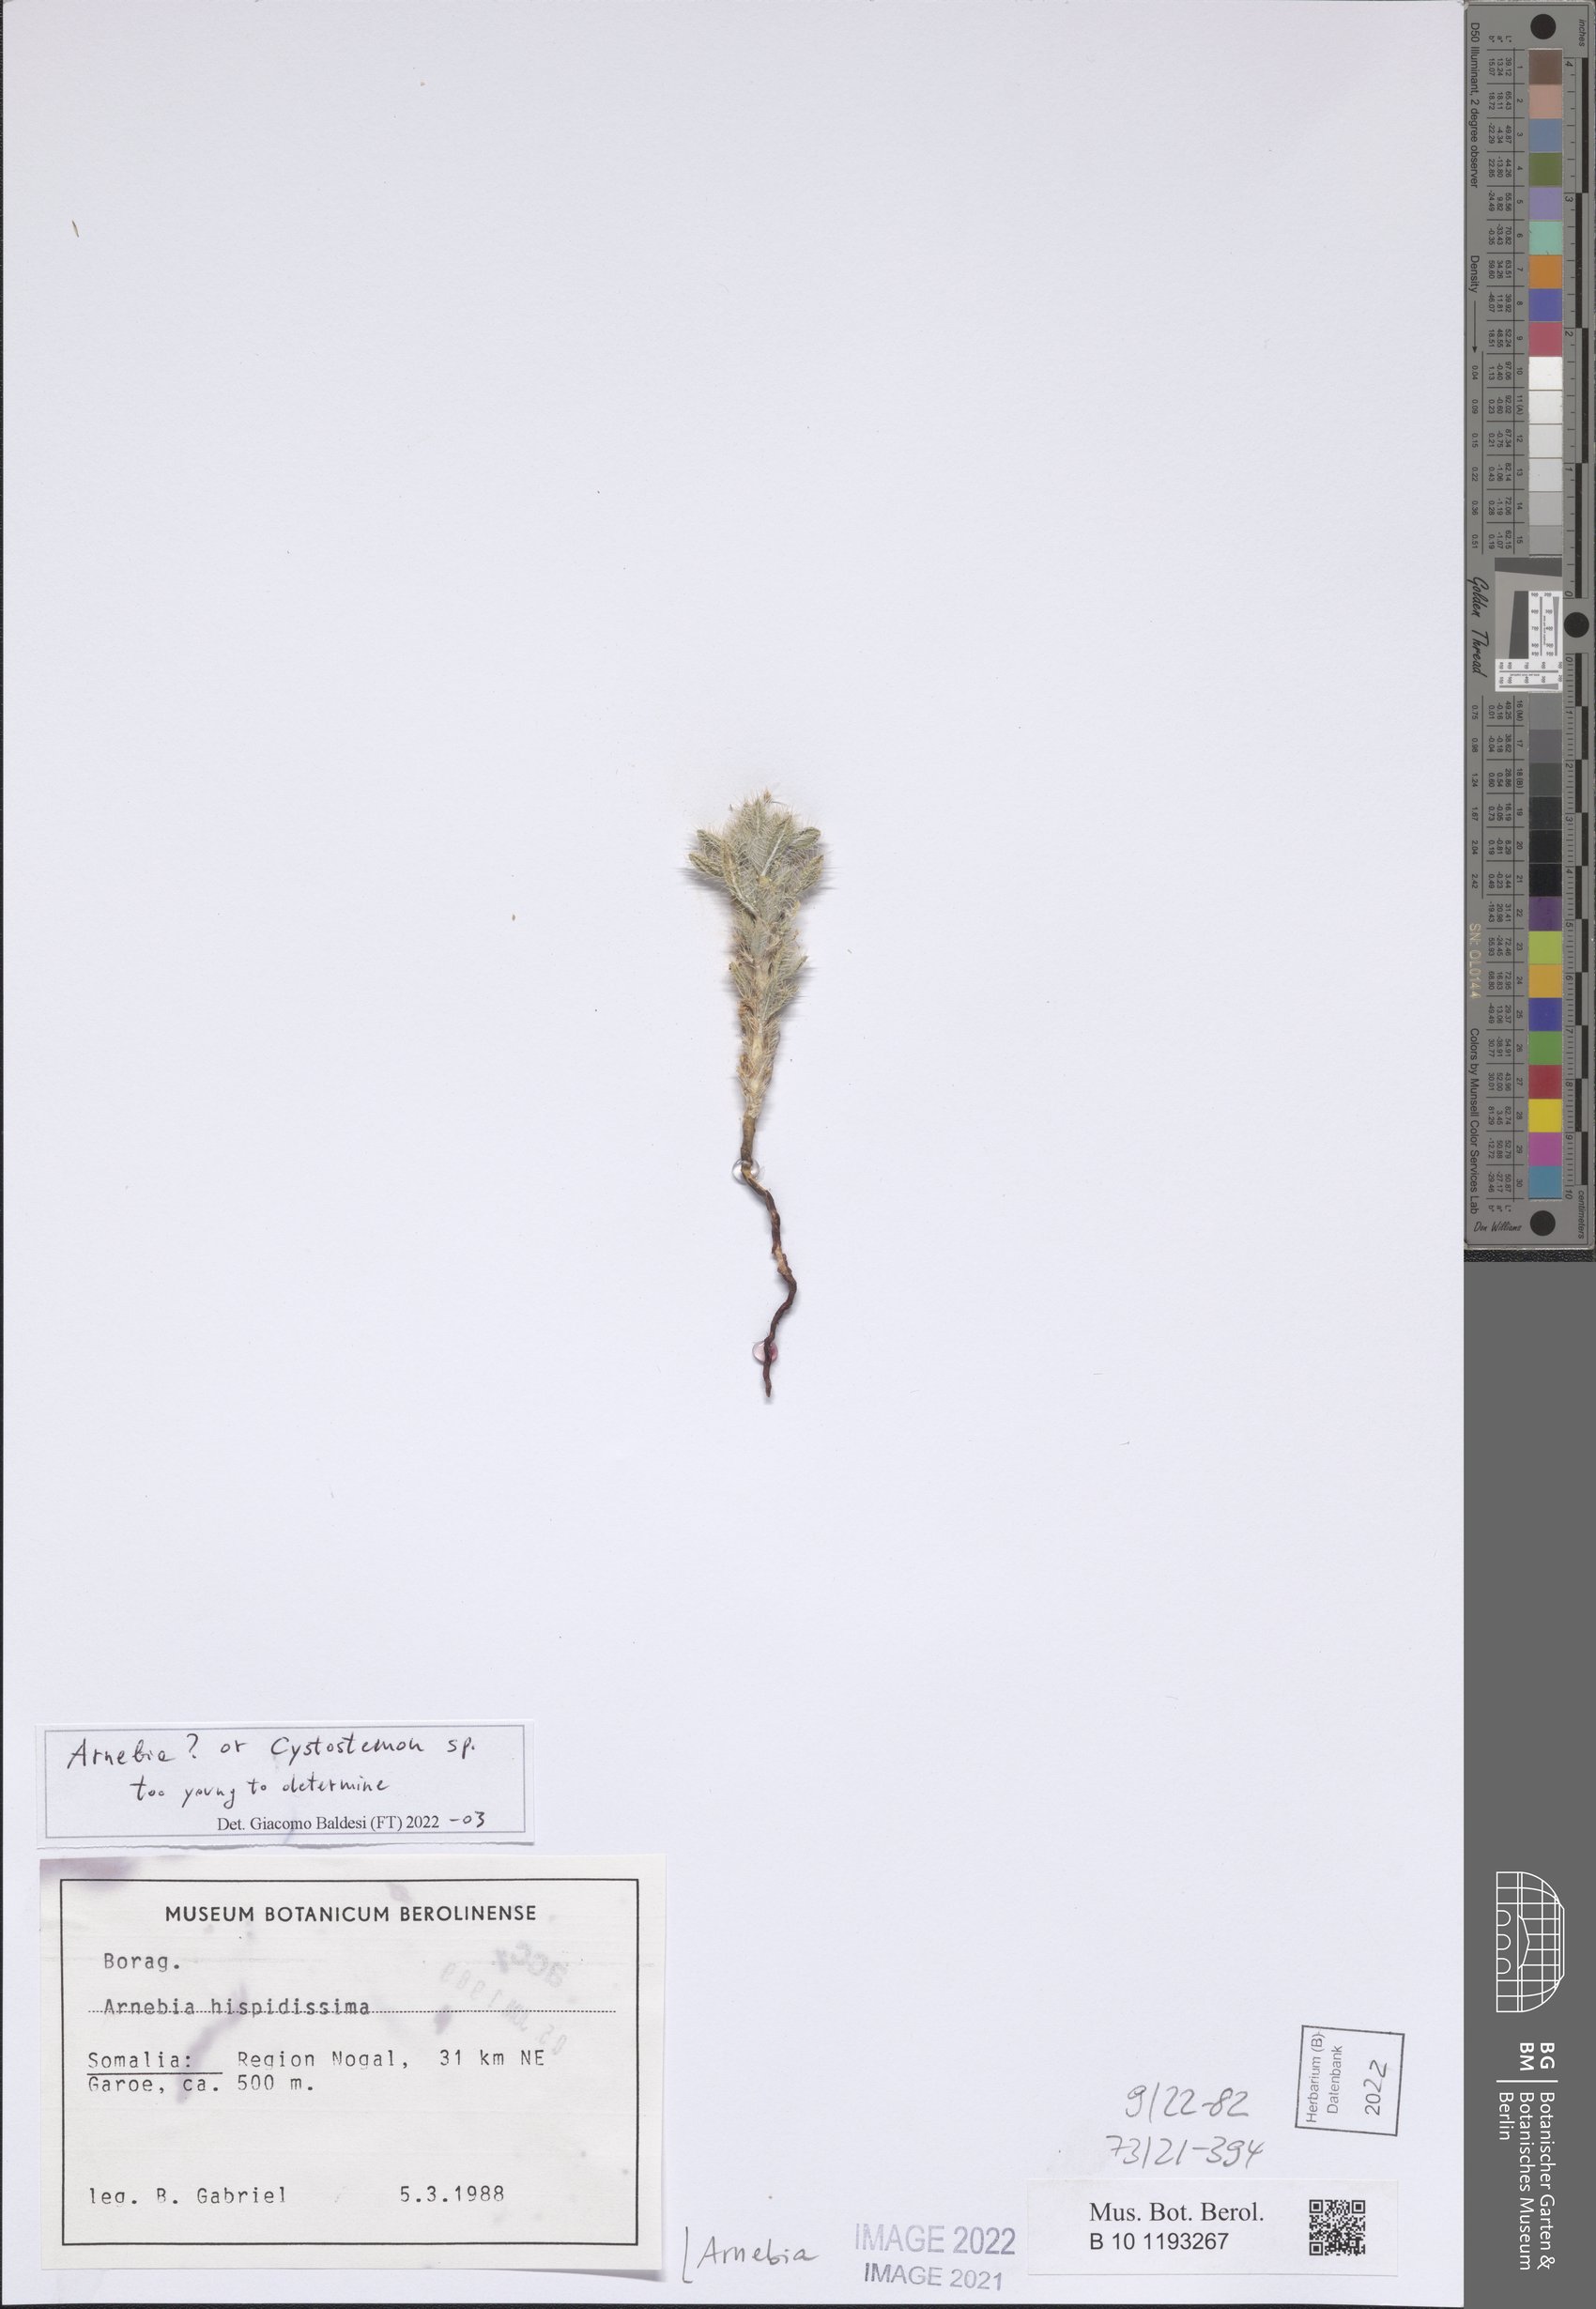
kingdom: Plantae
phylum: Tracheophyta
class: Magnoliopsida
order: Boraginales
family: Boraginaceae
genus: Arnebia
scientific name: Arnebia
